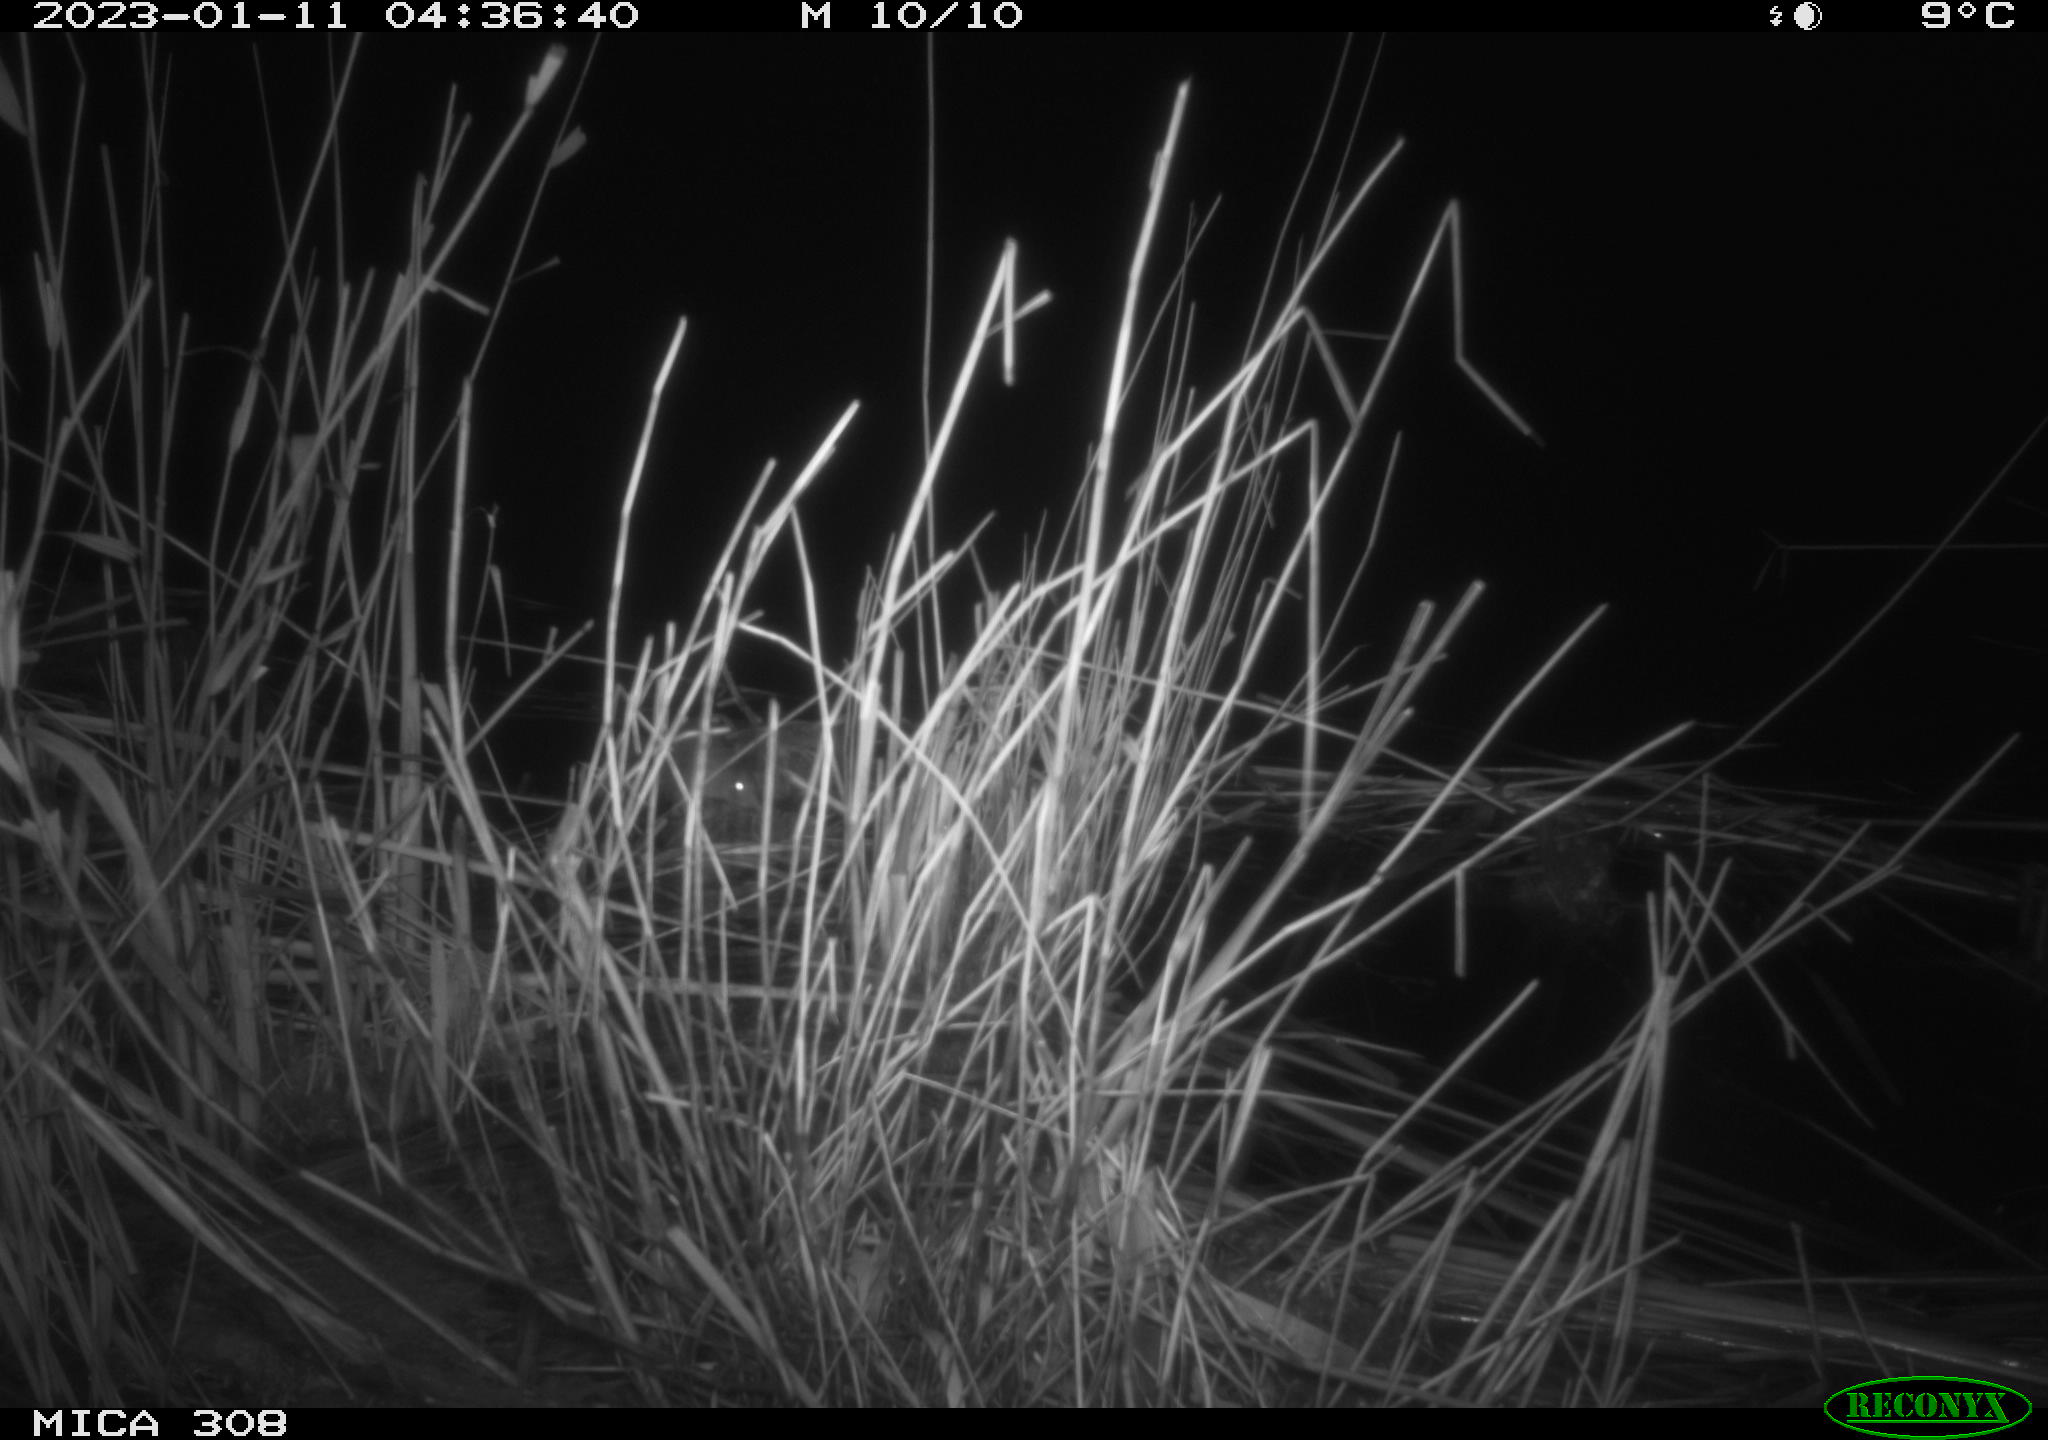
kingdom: Animalia
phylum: Chordata
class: Mammalia
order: Rodentia
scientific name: Rodentia
